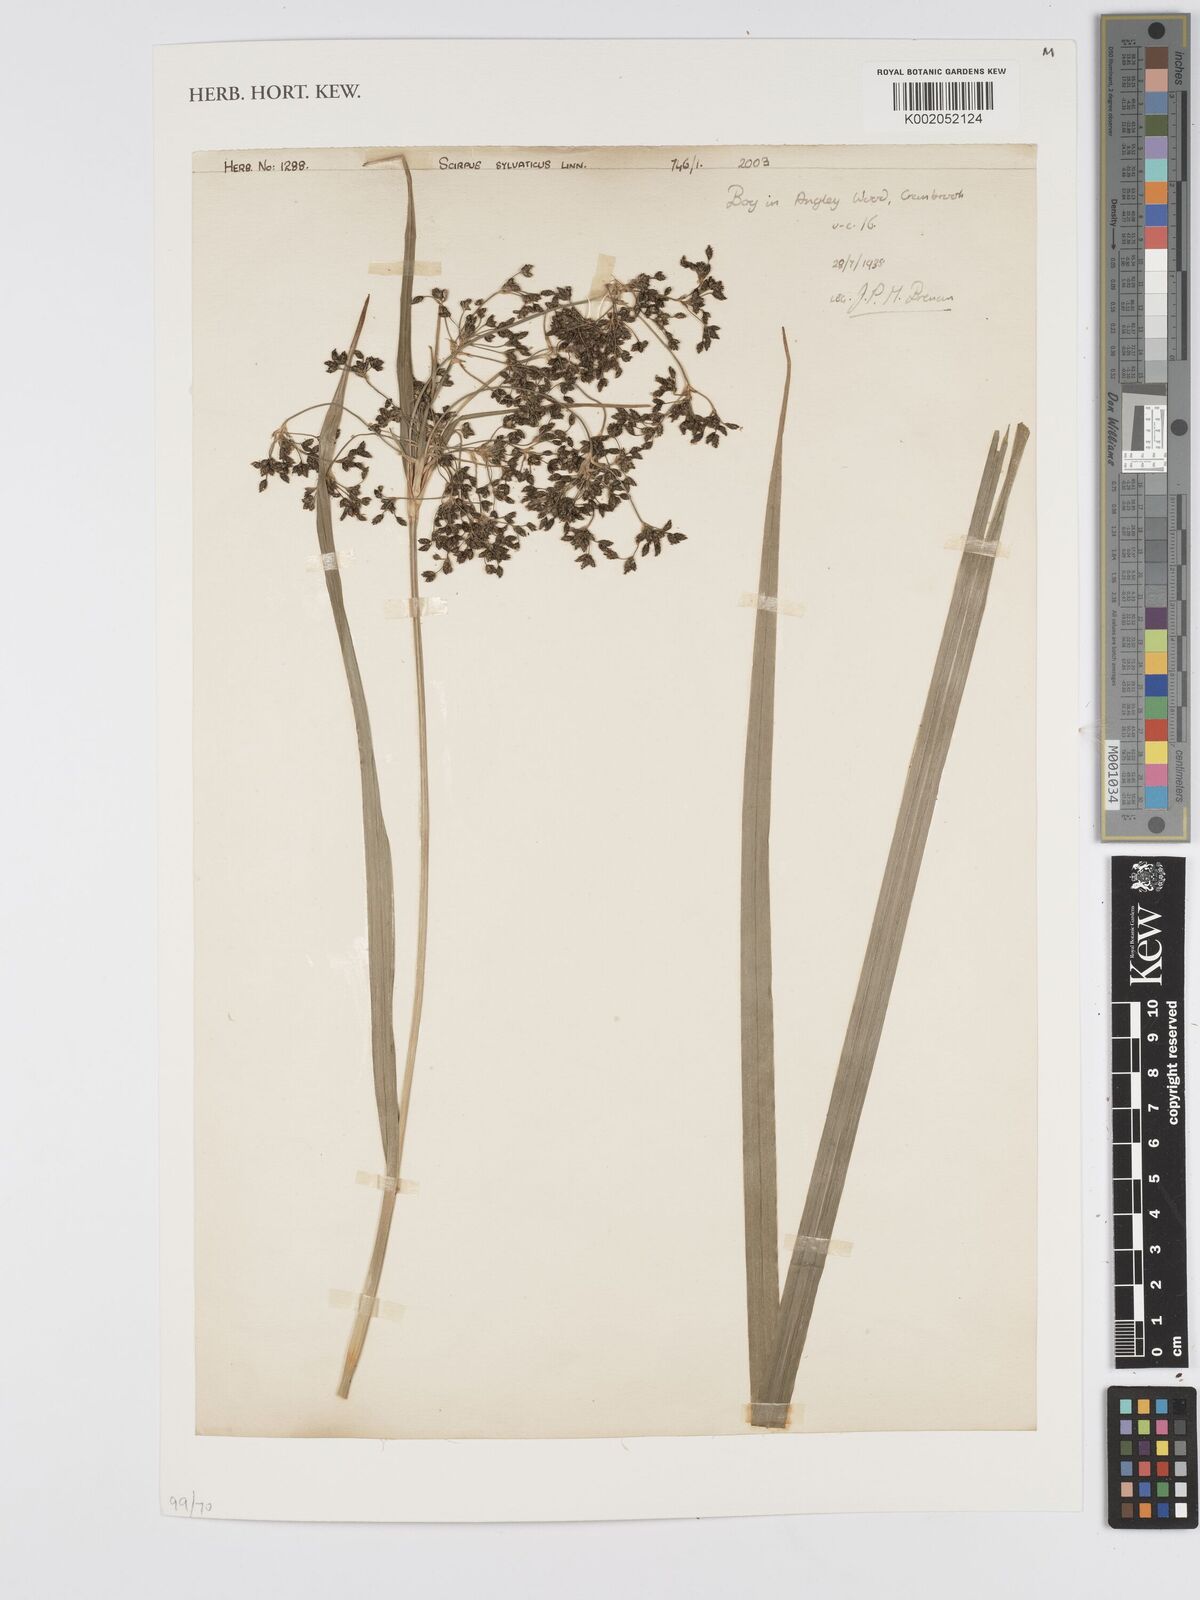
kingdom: Plantae
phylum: Tracheophyta
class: Liliopsida
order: Poales
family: Cyperaceae
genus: Scirpus
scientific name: Scirpus sylvaticus
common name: Wood club-rush
